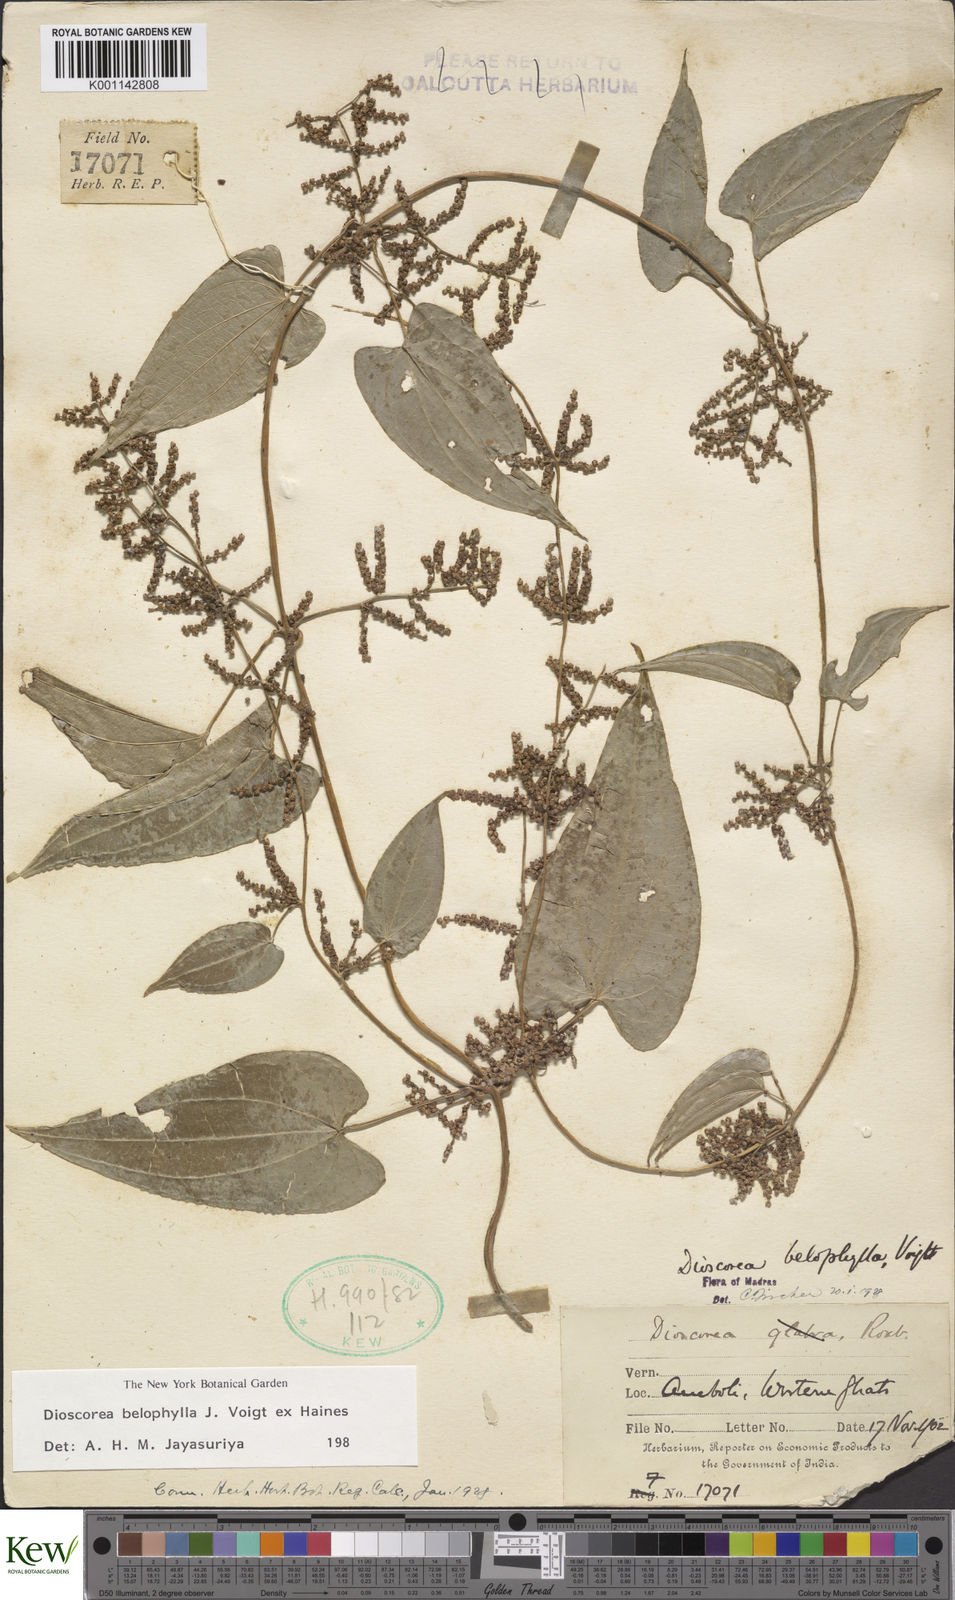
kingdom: Plantae
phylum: Tracheophyta
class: Liliopsida
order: Dioscoreales
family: Dioscoreaceae
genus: Dioscorea
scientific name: Dioscorea belophylla
